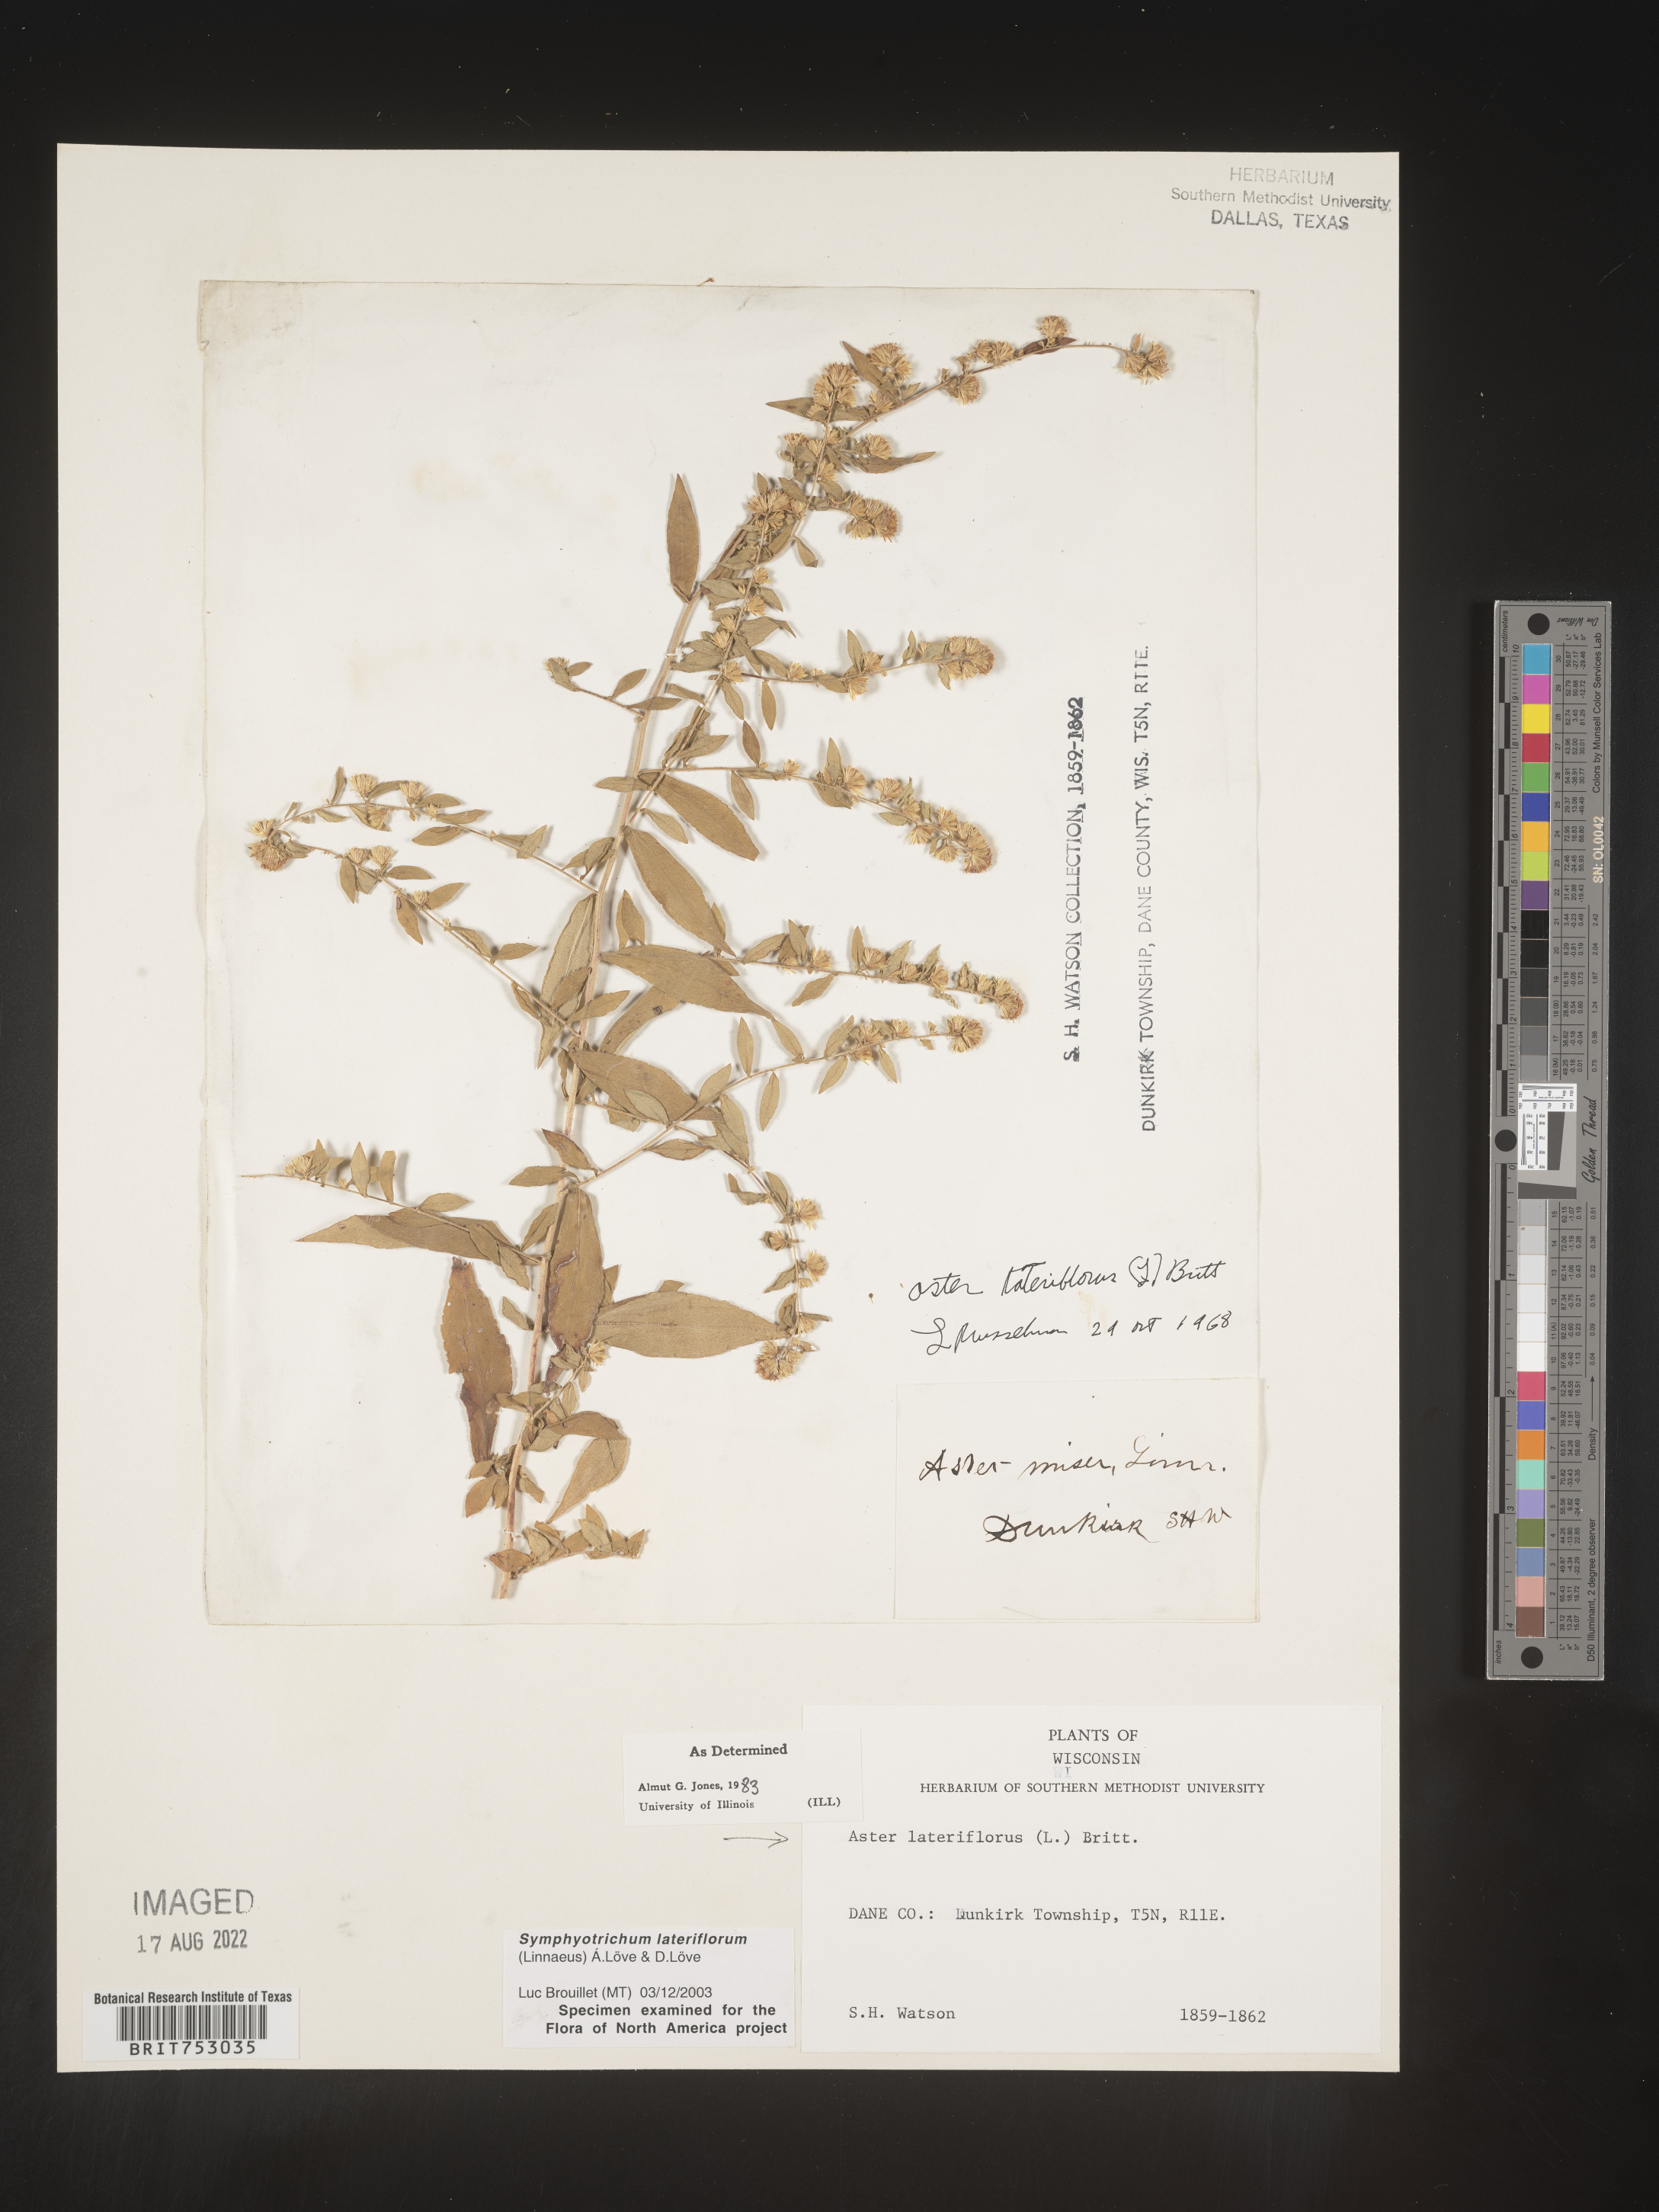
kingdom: Plantae
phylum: Tracheophyta
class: Magnoliopsida
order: Asterales
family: Asteraceae
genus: Symphyotrichum
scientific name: Symphyotrichum lateriflorum
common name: Calico aster
